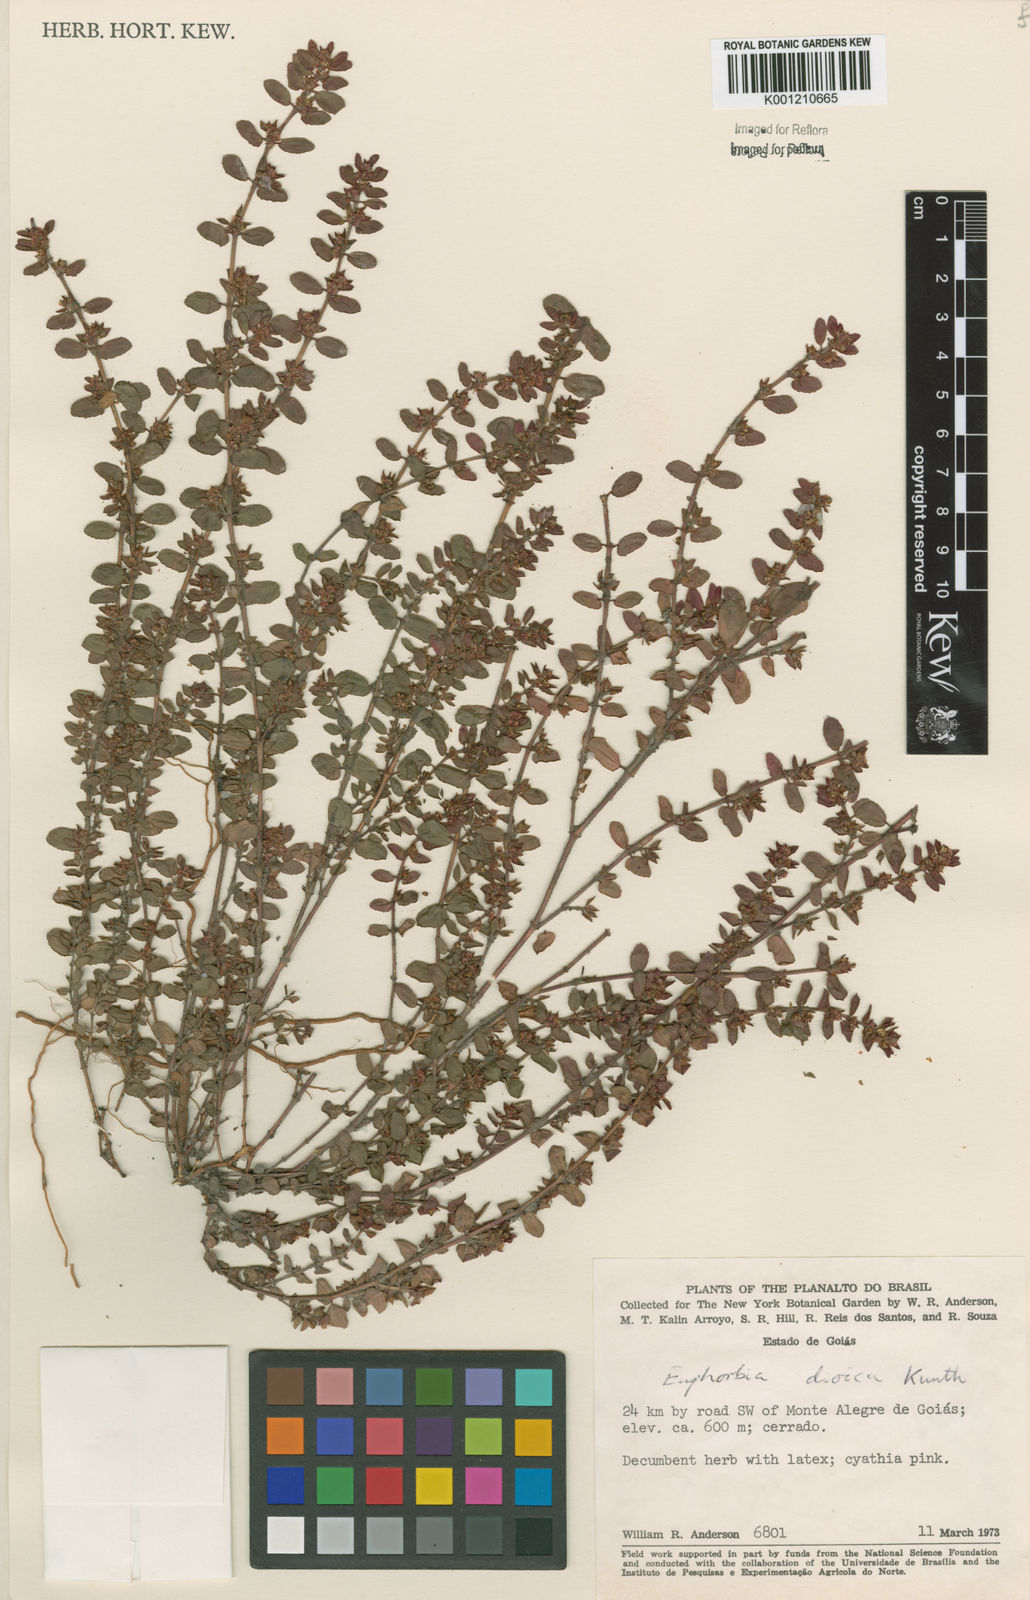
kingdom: Plantae
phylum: Tracheophyta
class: Magnoliopsida
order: Malpighiales
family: Euphorbiaceae
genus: Euphorbia
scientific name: Euphorbia
